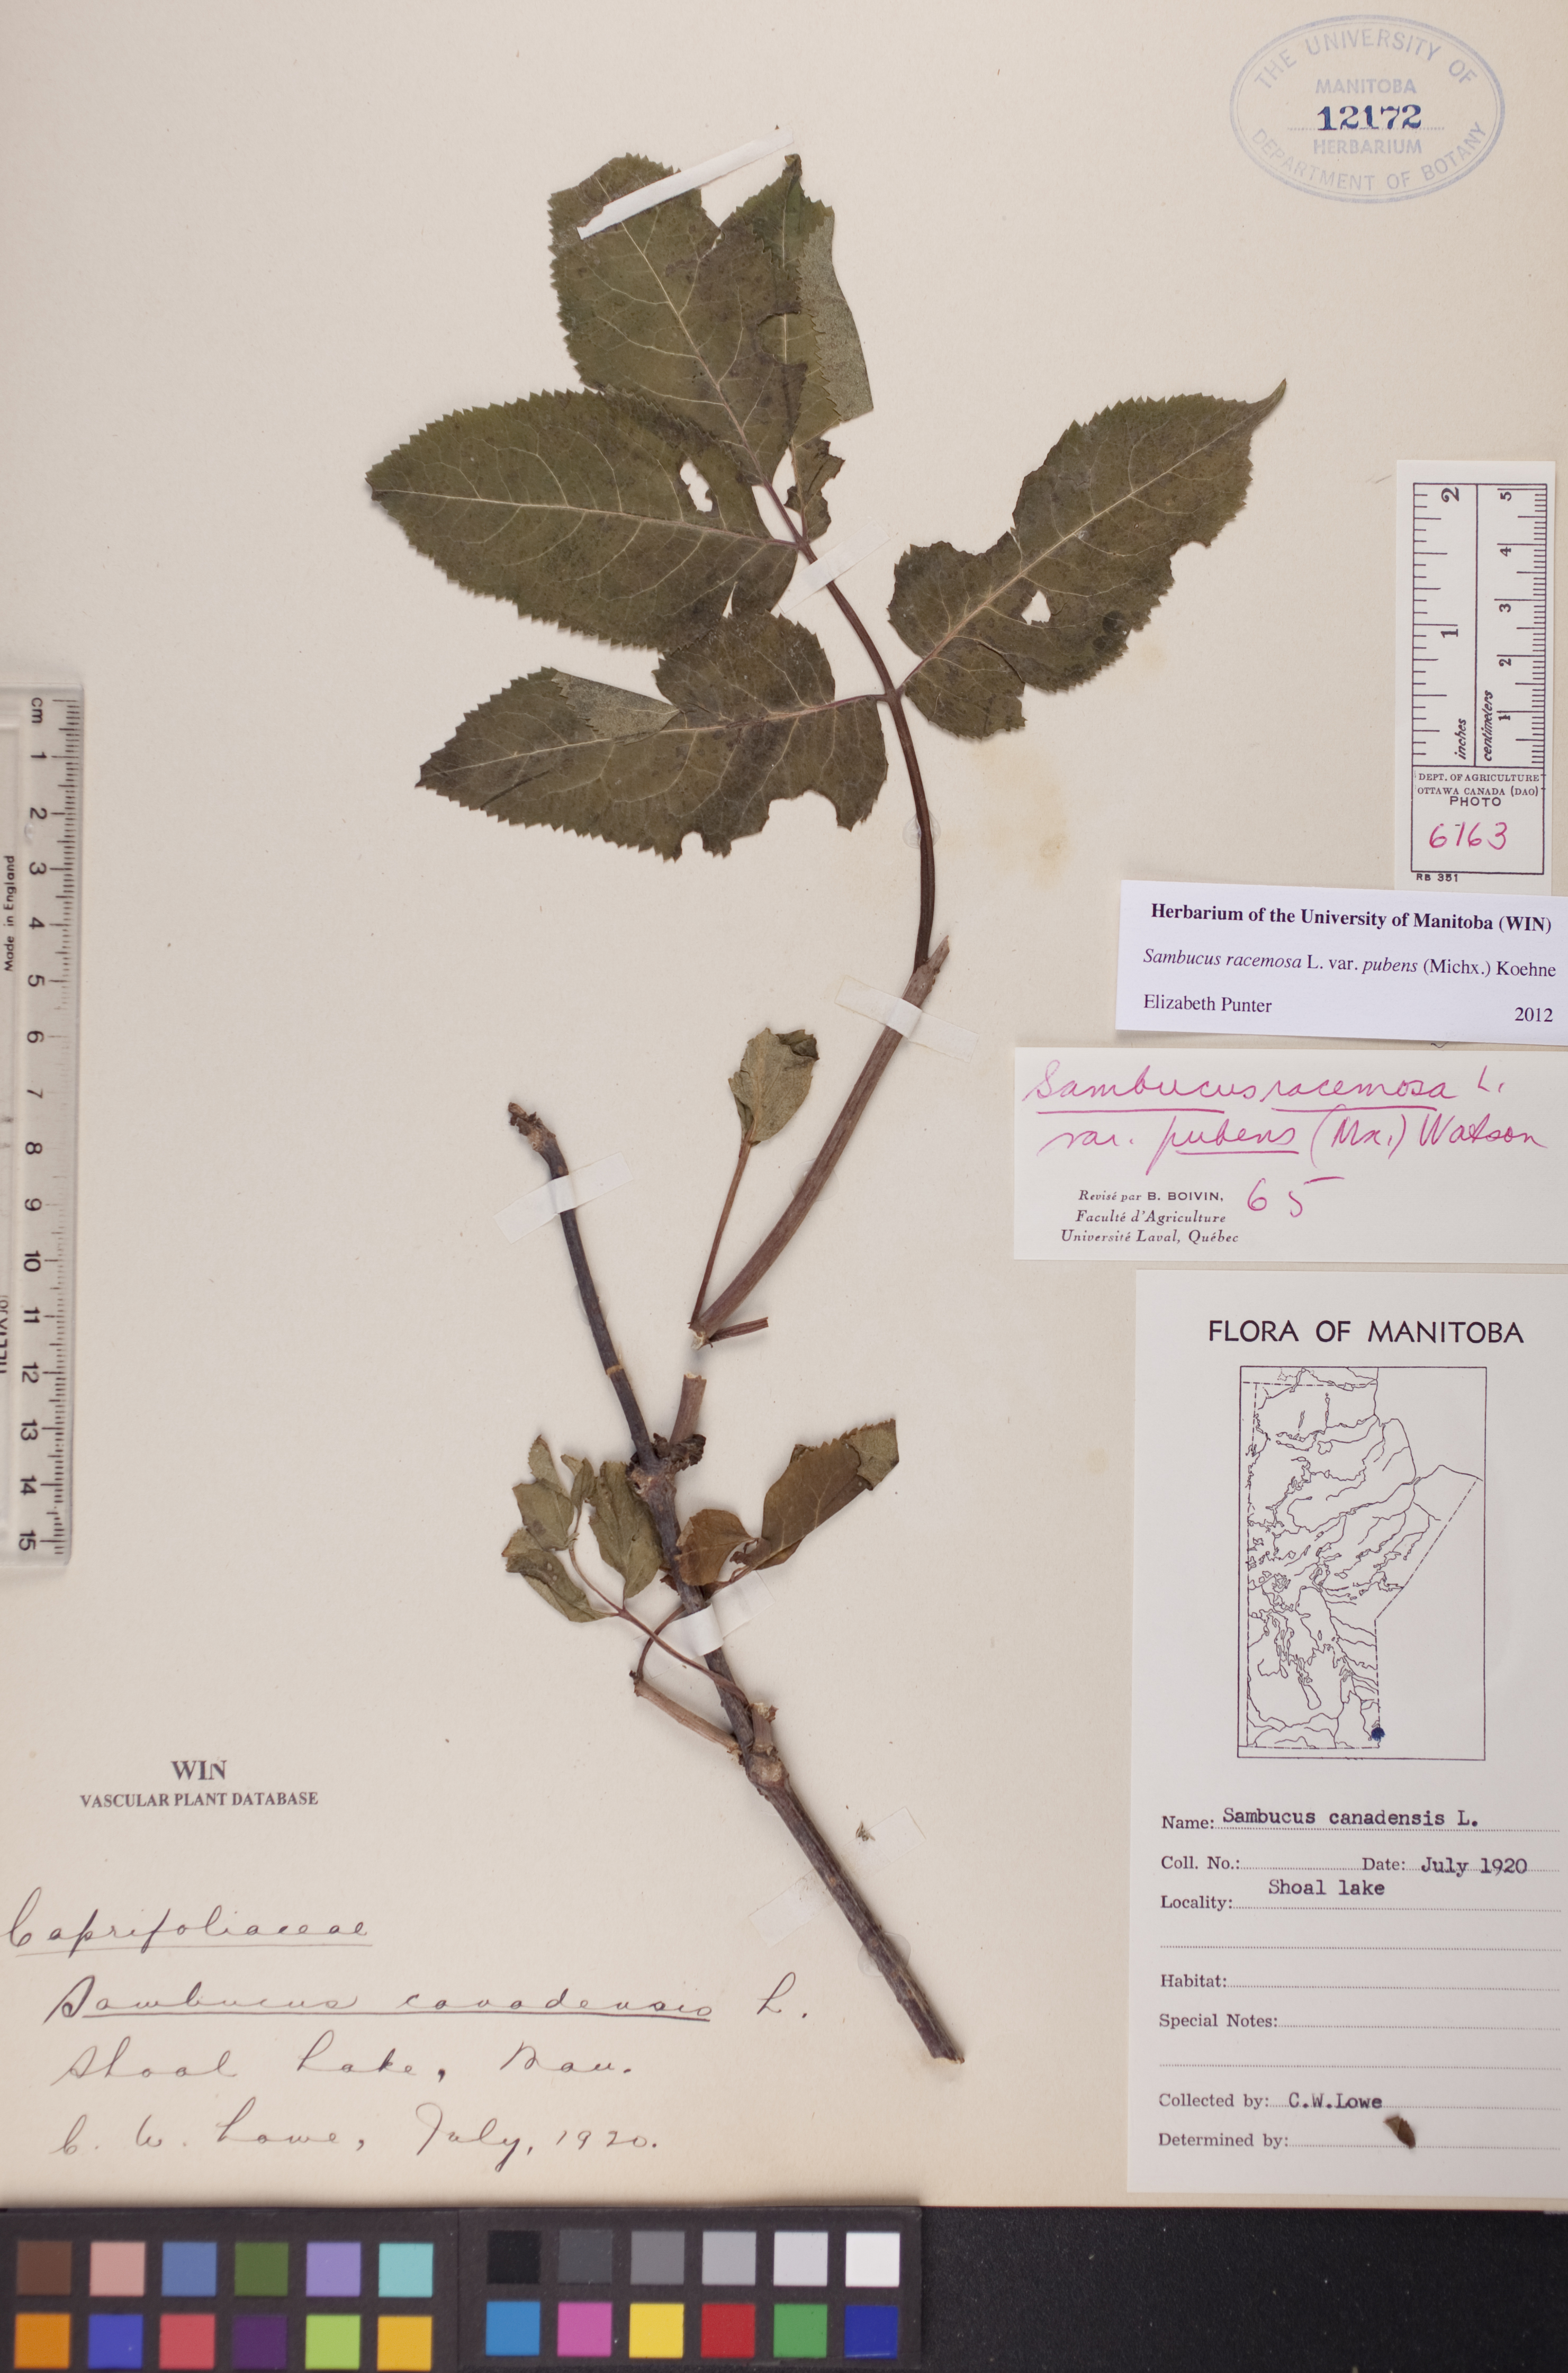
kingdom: Plantae
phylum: Tracheophyta
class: Magnoliopsida
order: Dipsacales
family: Viburnaceae
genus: Sambucus
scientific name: Sambucus racemosa
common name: Red-berried elder
